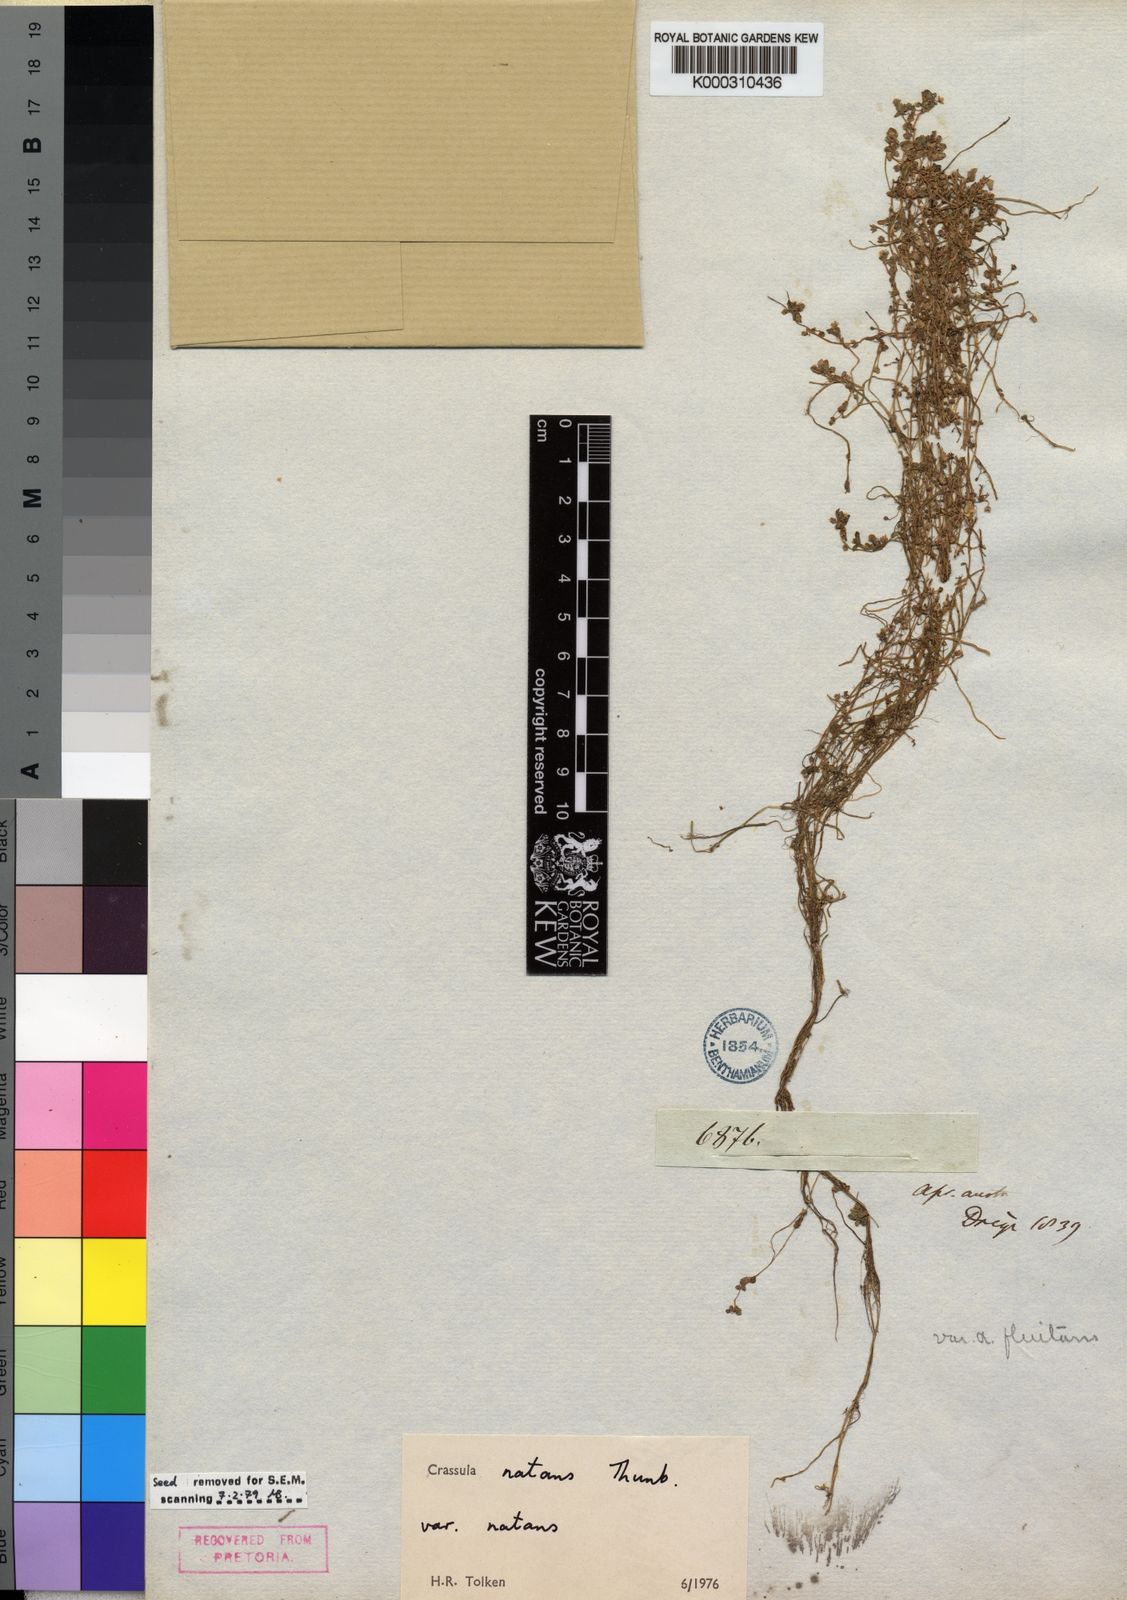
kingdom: Plantae
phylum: Tracheophyta
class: Magnoliopsida
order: Saxifragales
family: Crassulaceae
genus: Crassula
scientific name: Crassula natans
